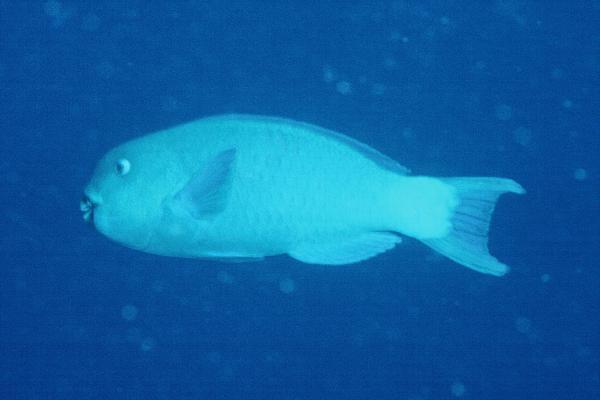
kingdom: Animalia
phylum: Chordata
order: Perciformes
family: Scaridae
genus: Chlorurus
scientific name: Chlorurus enneacanthus
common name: Captain parrotfish
